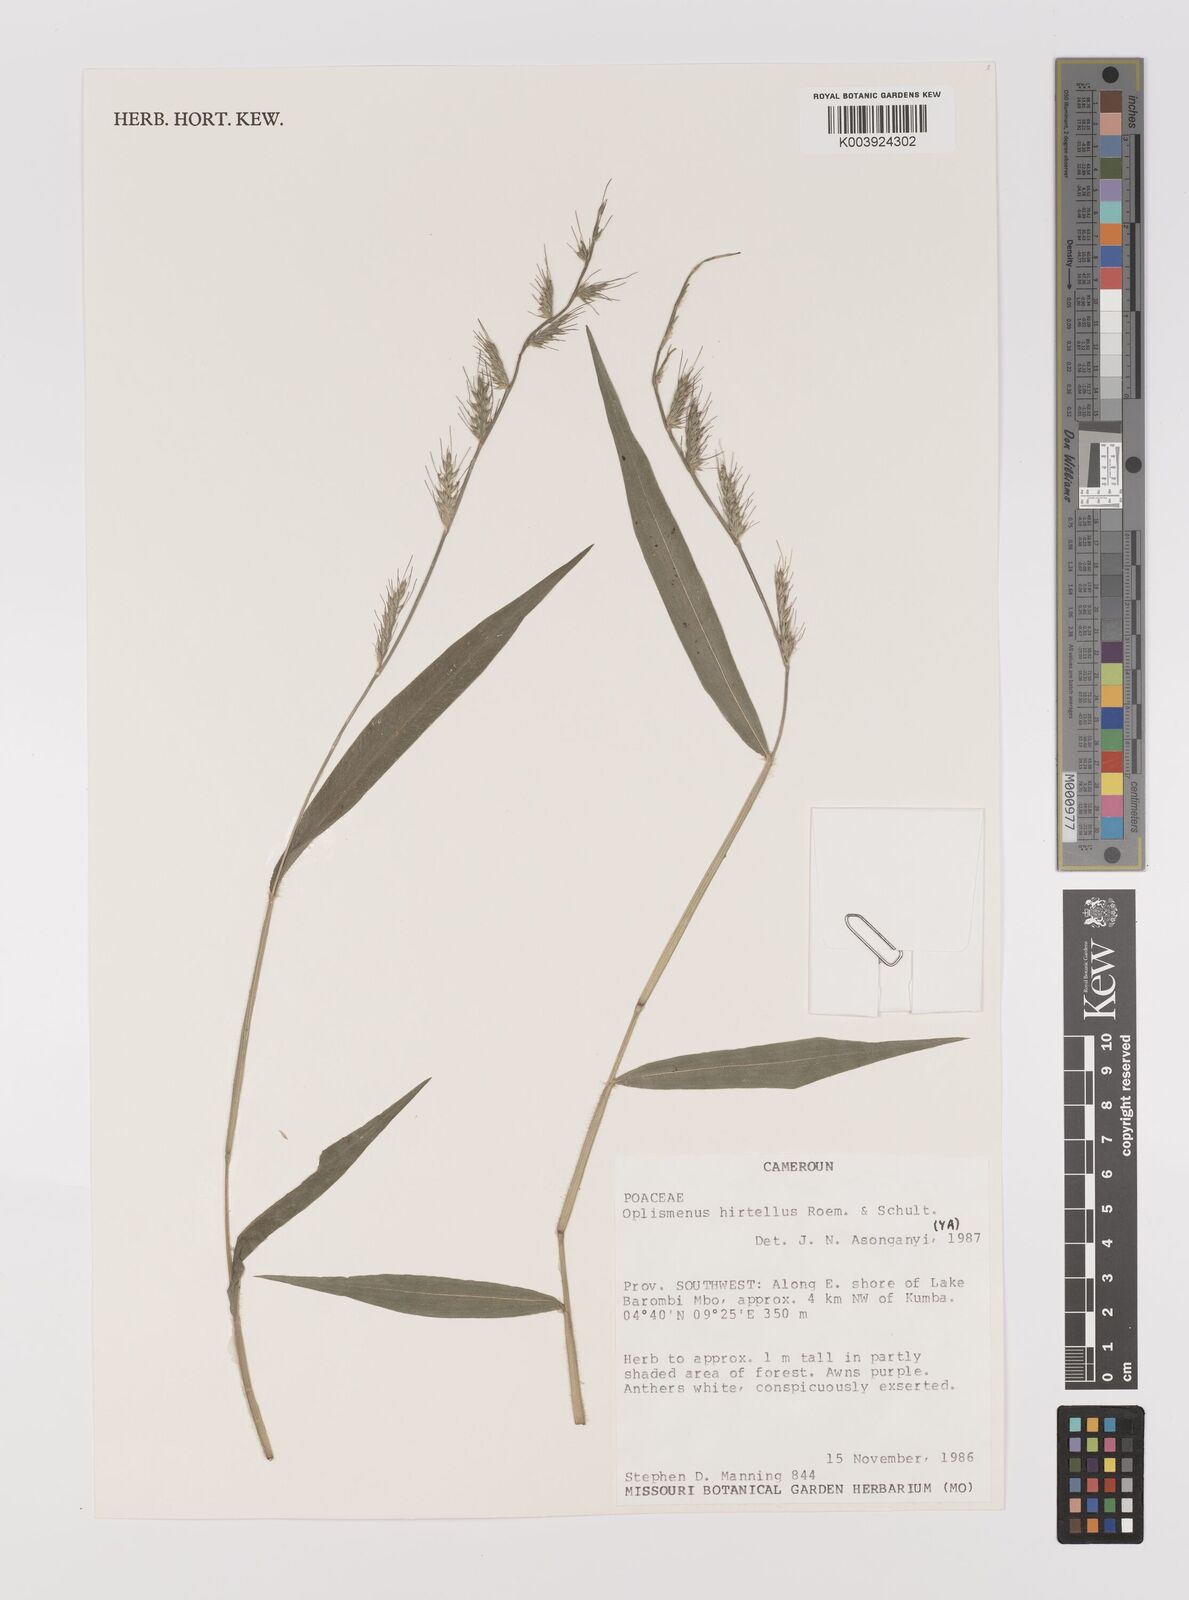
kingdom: Plantae
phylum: Tracheophyta
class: Liliopsida
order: Poales
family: Poaceae
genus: Oplismenus
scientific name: Oplismenus hirtellus
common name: Basketgrass
